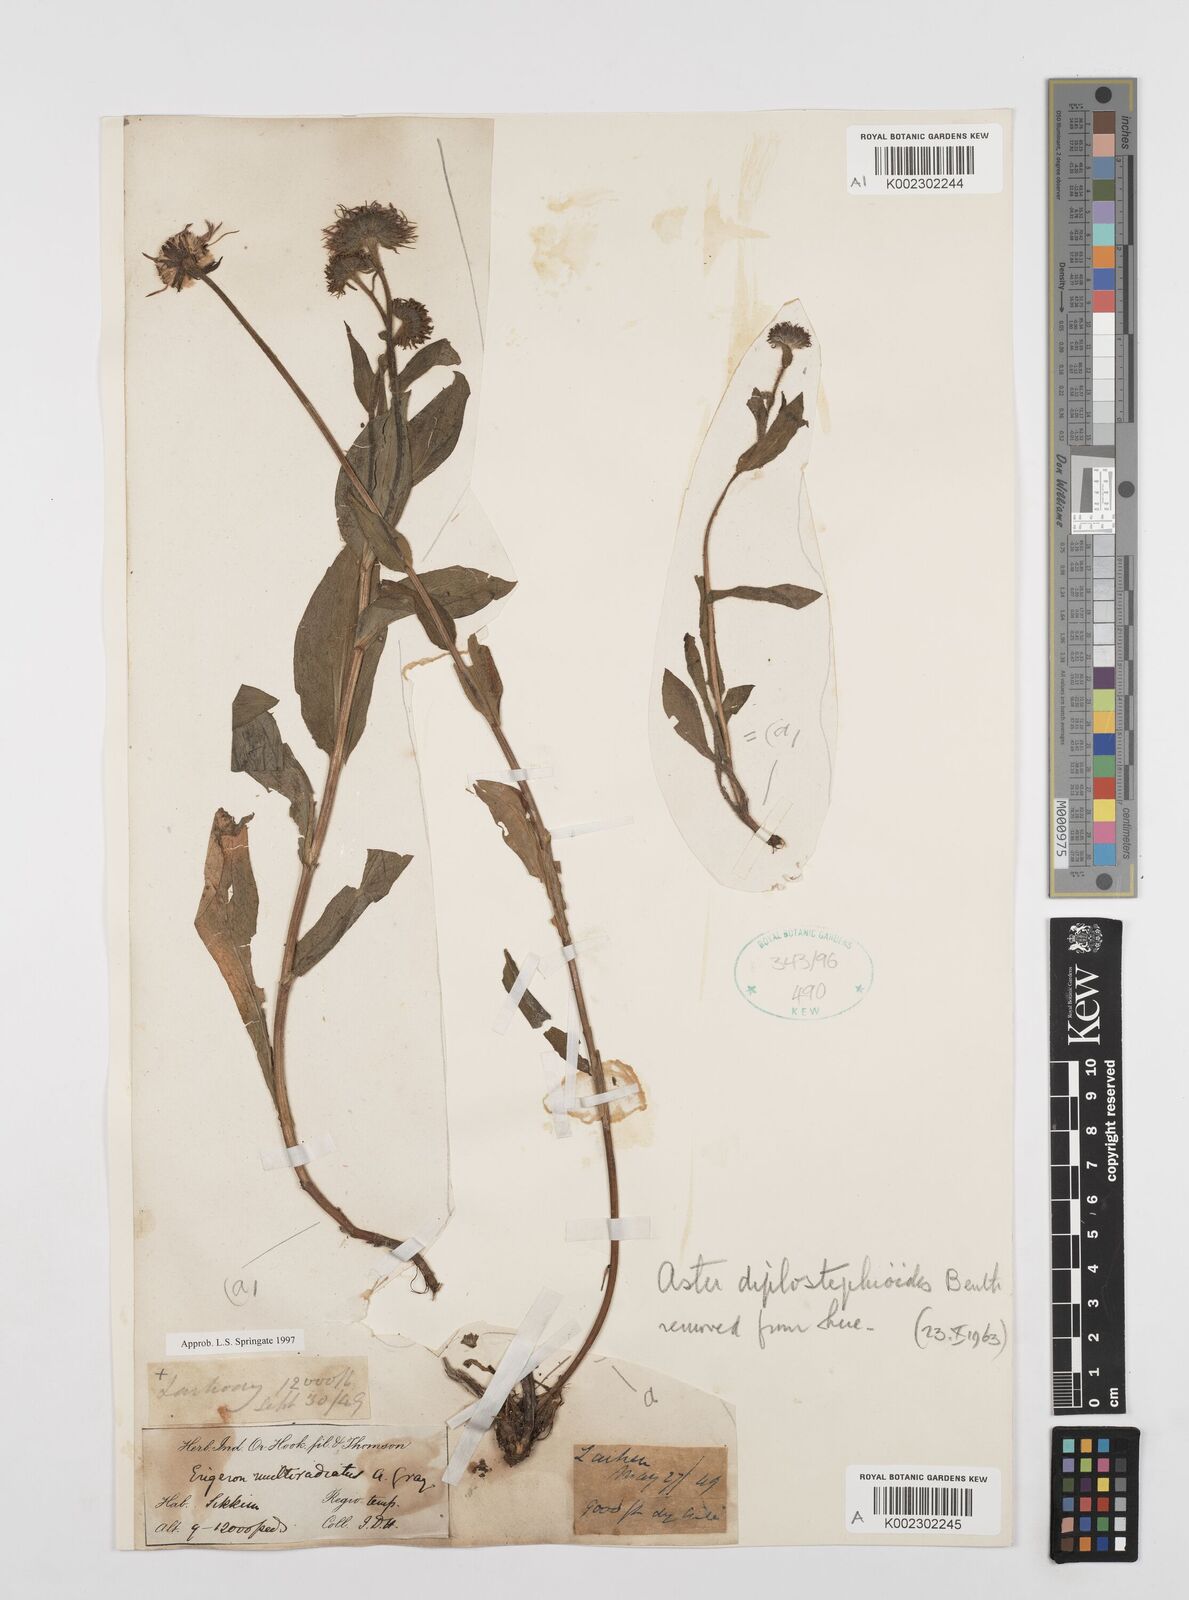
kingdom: Plantae
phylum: Tracheophyta
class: Magnoliopsida
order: Asterales
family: Asteraceae
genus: Erigeron
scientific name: Erigeron multiradiatus
